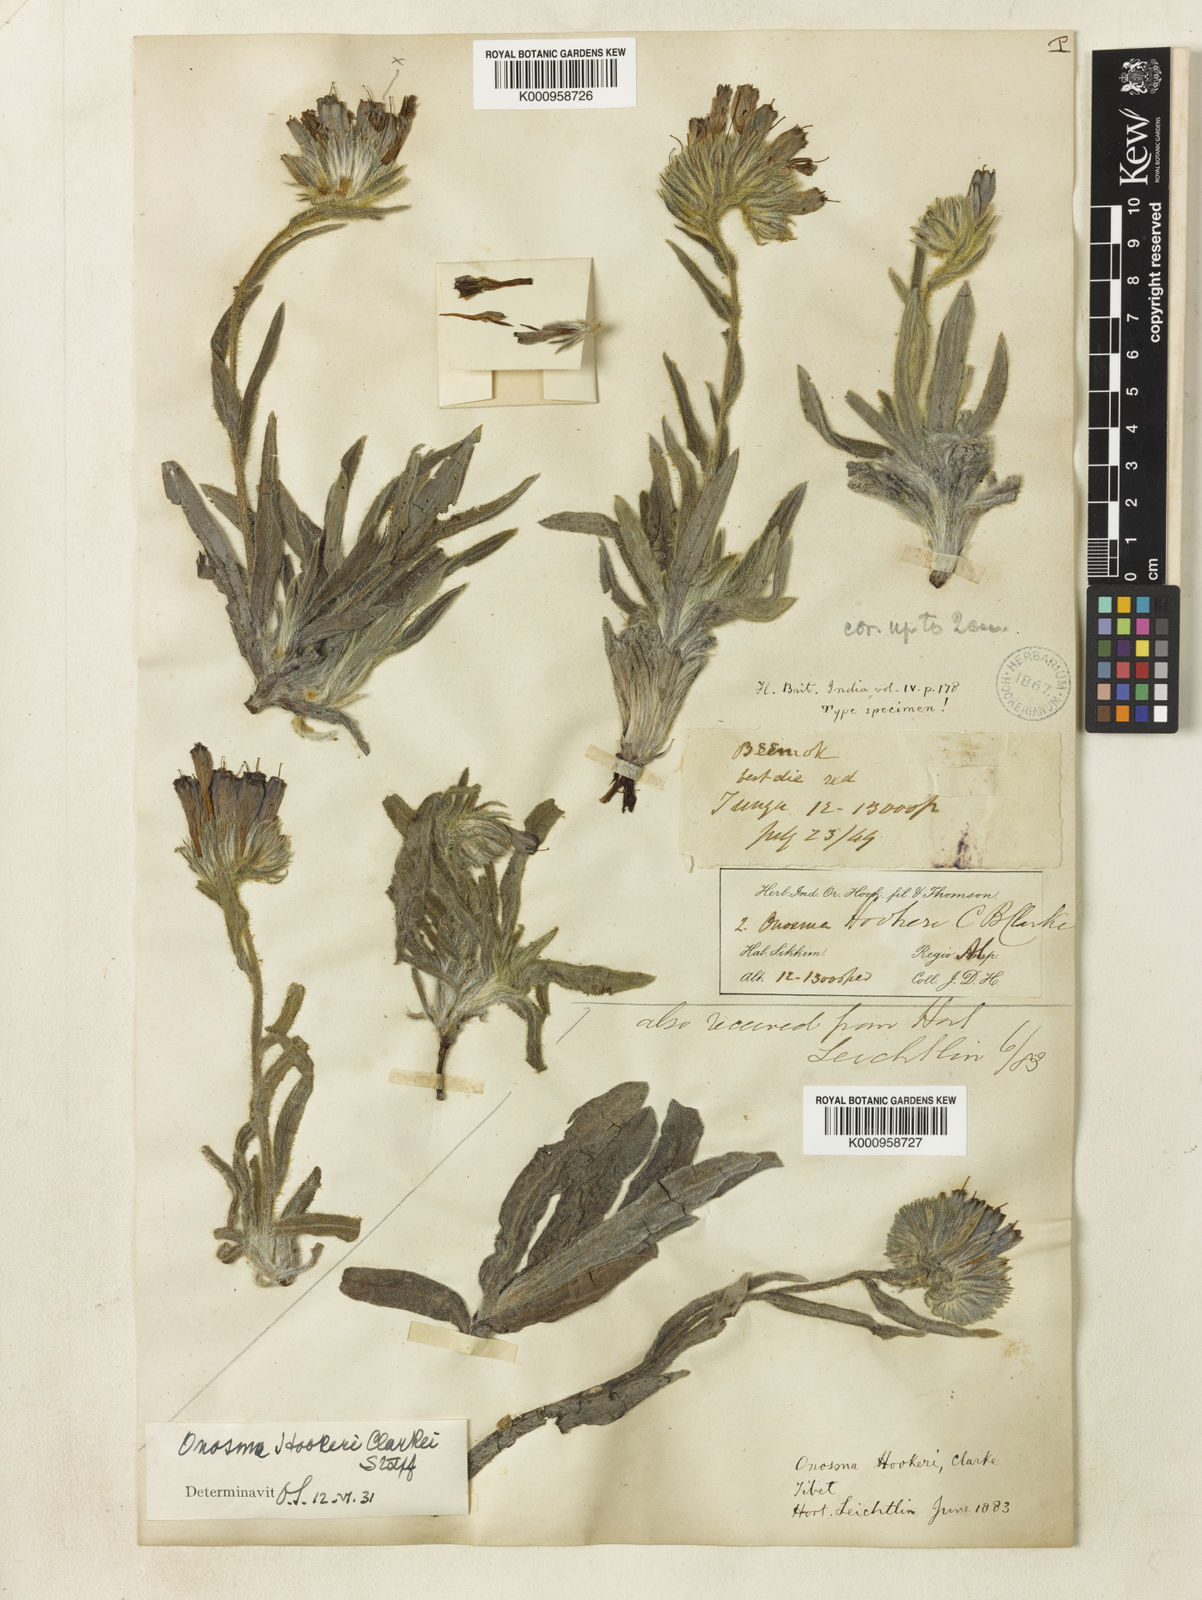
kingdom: Plantae
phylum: Tracheophyta
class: Magnoliopsida
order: Boraginales
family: Boraginaceae
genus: Maharanga
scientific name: Maharanga hookeri
